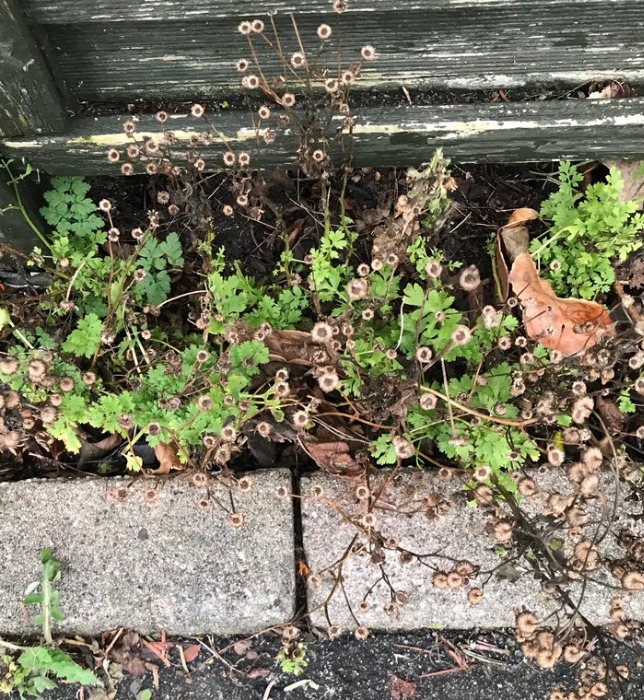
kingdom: Plantae
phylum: Tracheophyta
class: Magnoliopsida
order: Asterales
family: Asteraceae
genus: Tanacetum
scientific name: Tanacetum parthenium
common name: Matrem
